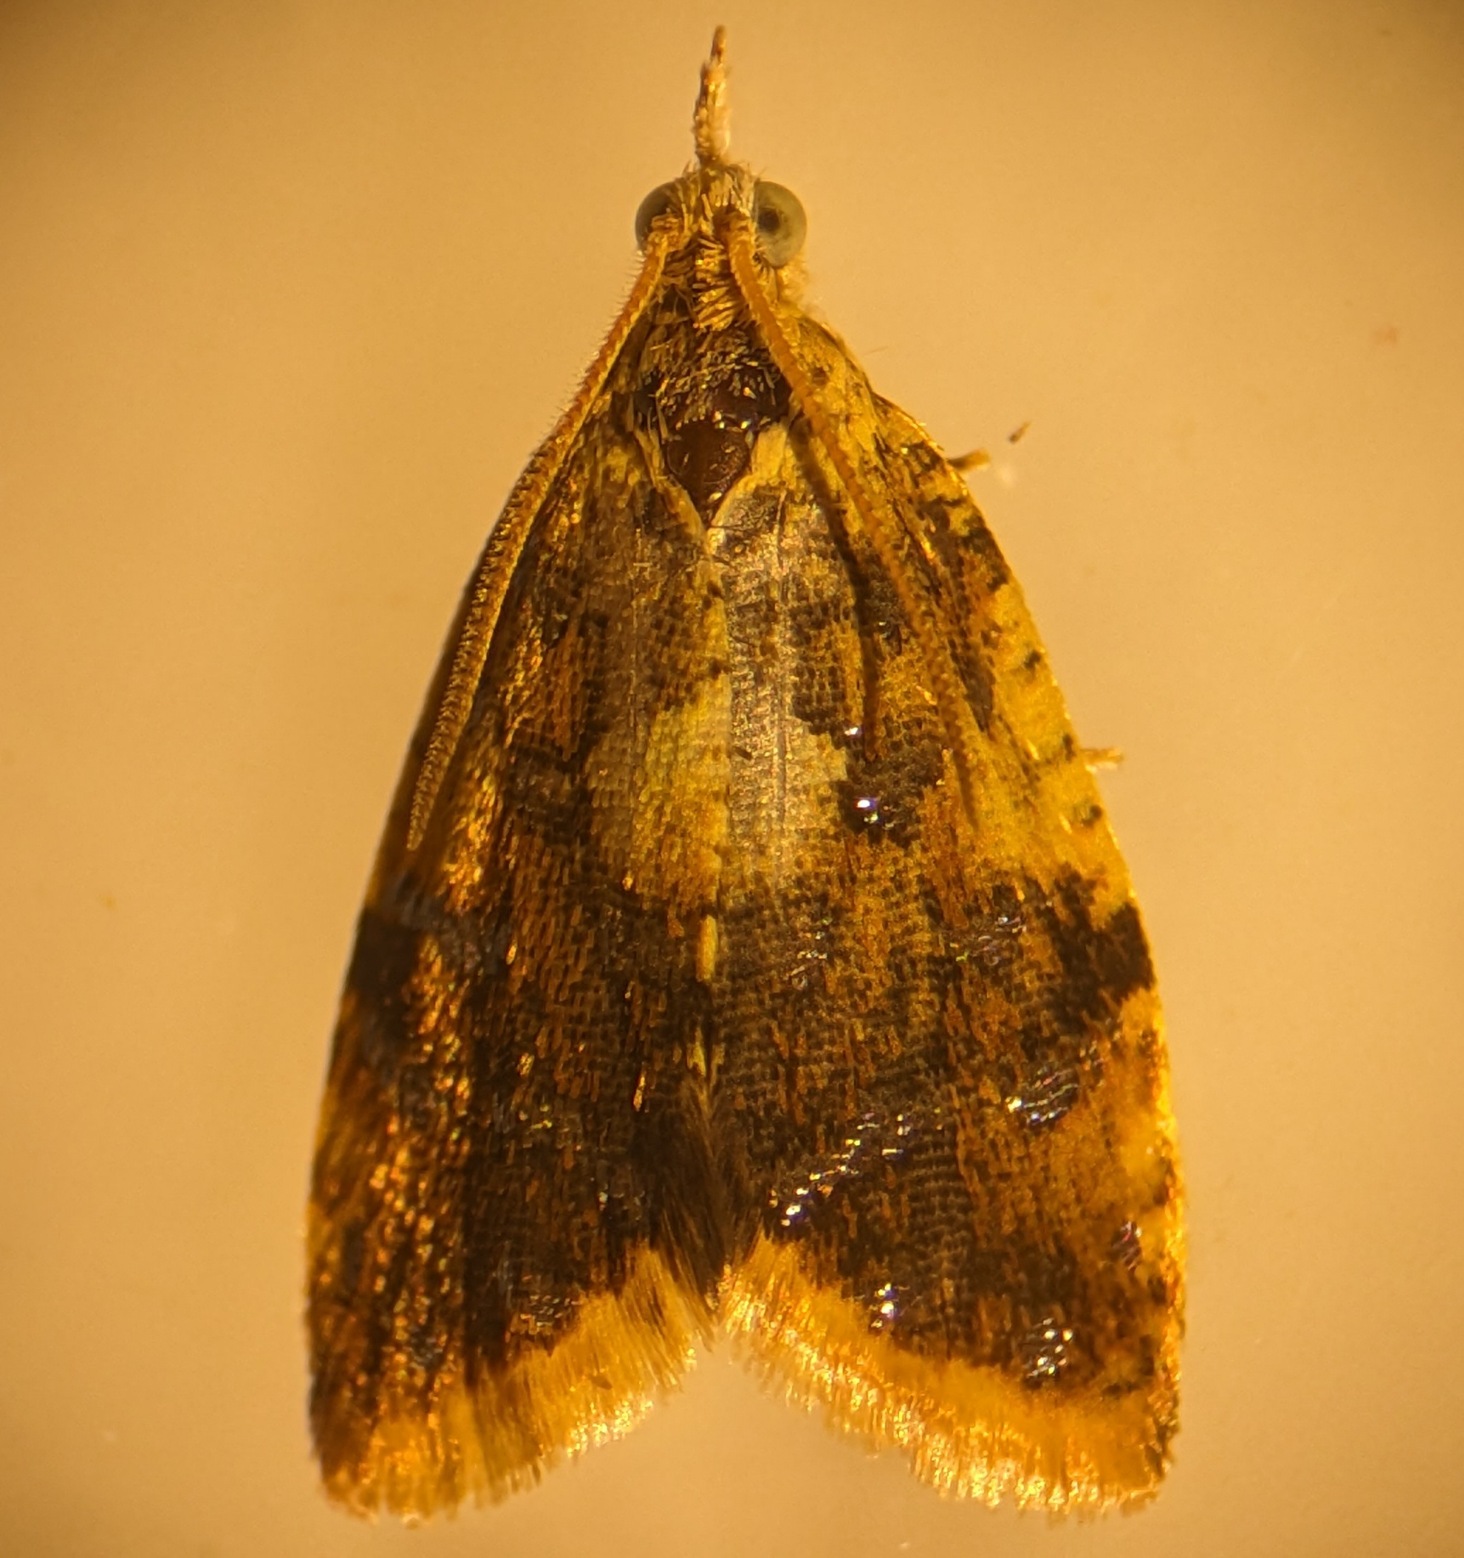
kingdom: Animalia
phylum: Arthropoda
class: Insecta
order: Lepidoptera
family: Tortricidae
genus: Pseudargyrotoza
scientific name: Pseudargyrotoza conwagana
